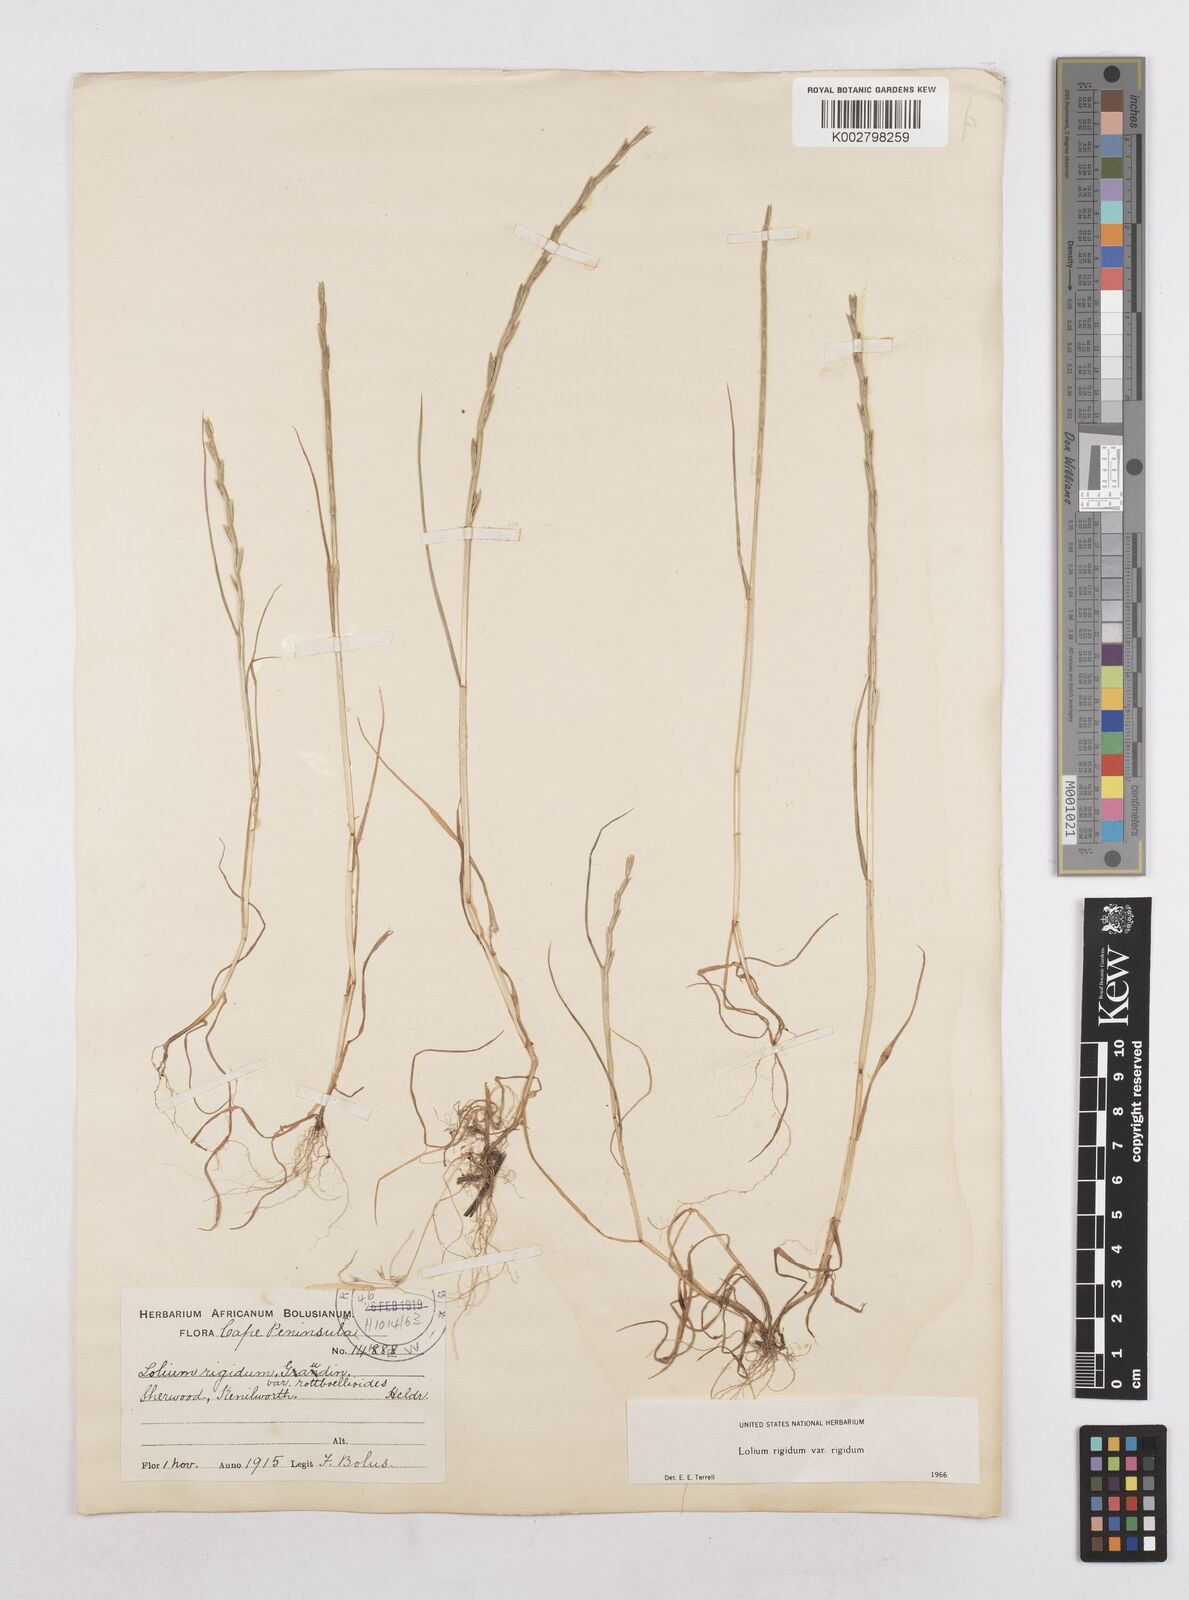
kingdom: Plantae
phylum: Tracheophyta
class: Liliopsida
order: Poales
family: Poaceae
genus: Lolium
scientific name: Lolium rigidum
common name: Wimmera ryegrass
